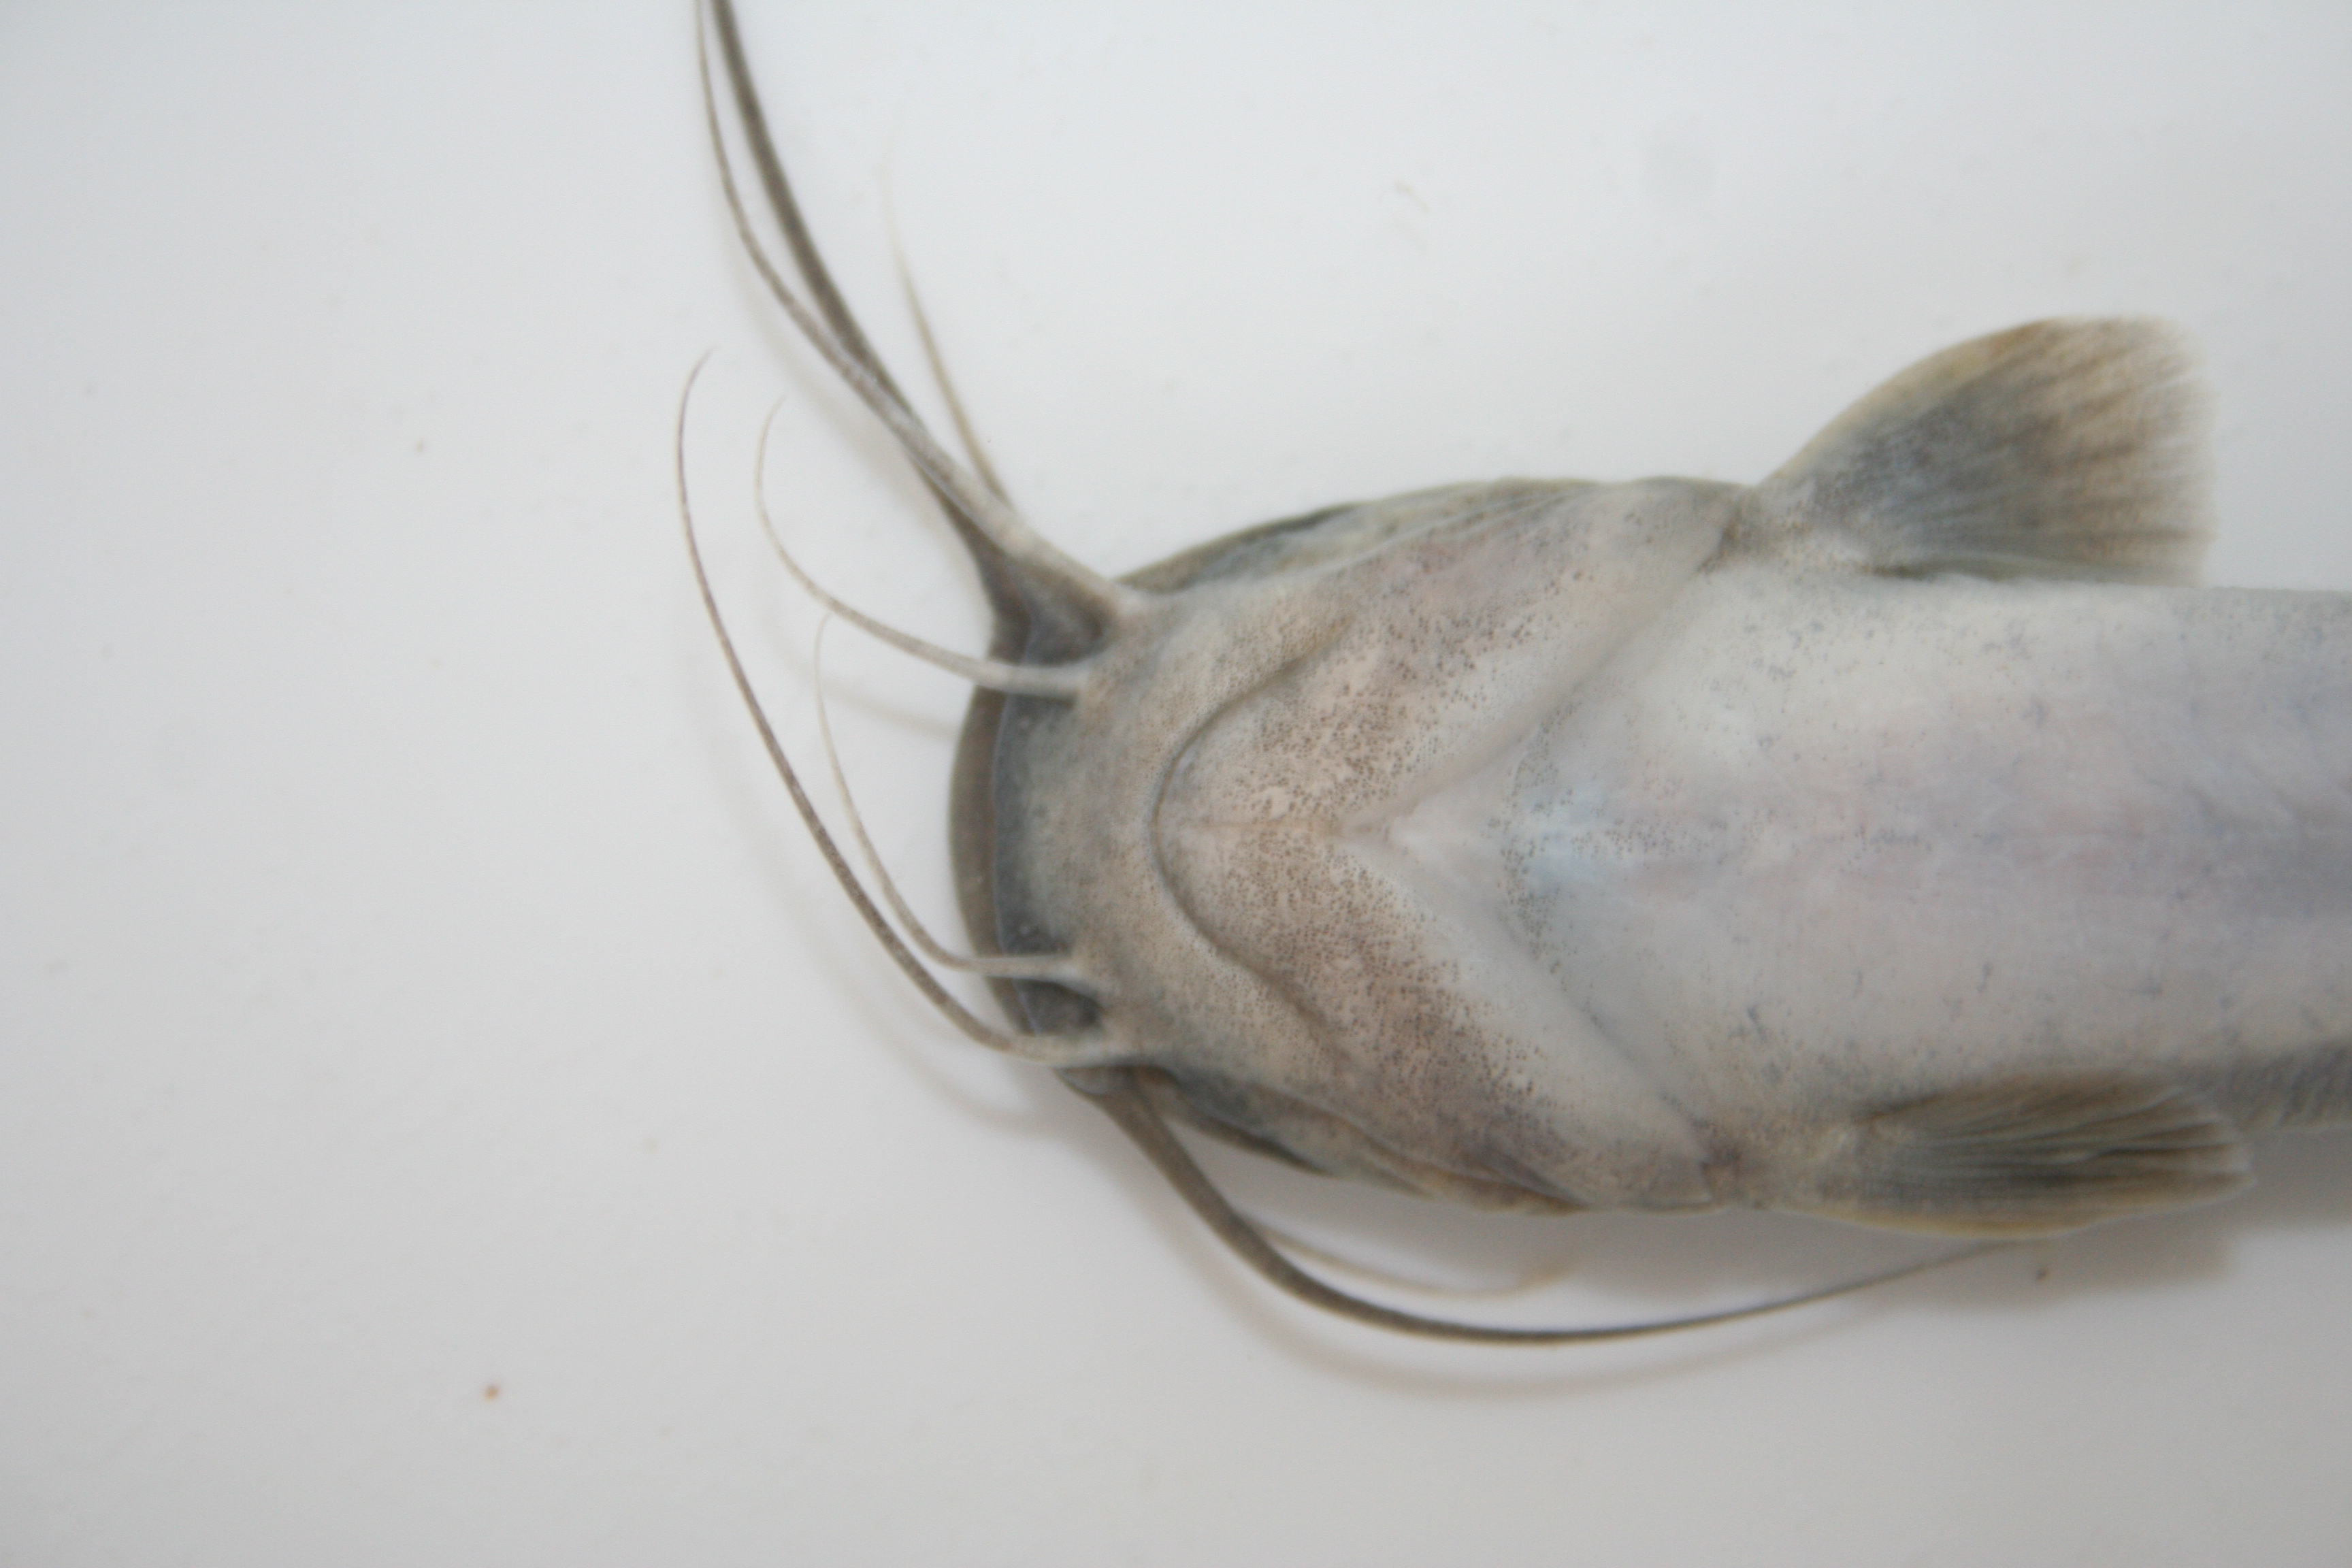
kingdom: Animalia
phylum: Chordata
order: Siluriformes
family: Clariidae
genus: Clarias
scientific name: Clarias
